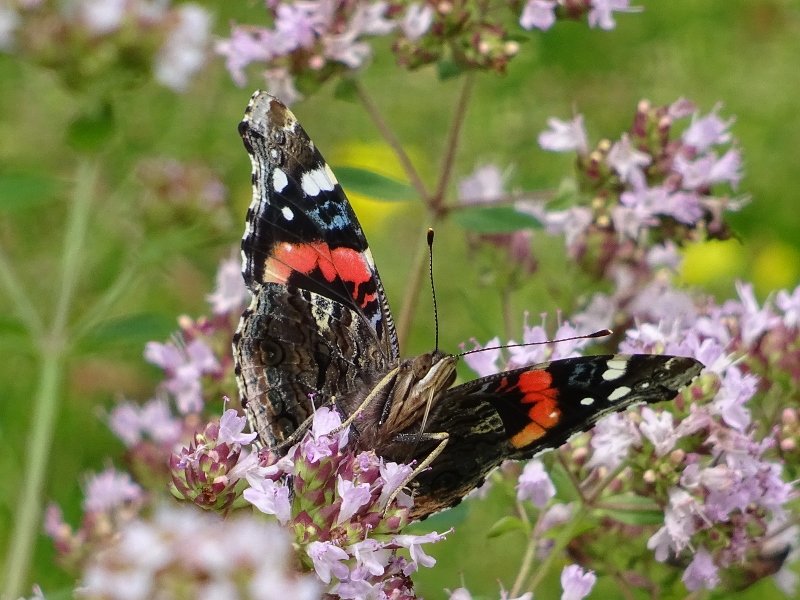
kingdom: Animalia
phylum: Arthropoda
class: Insecta
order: Lepidoptera
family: Nymphalidae
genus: Vanessa
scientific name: Vanessa atalanta
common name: Red Admiral
